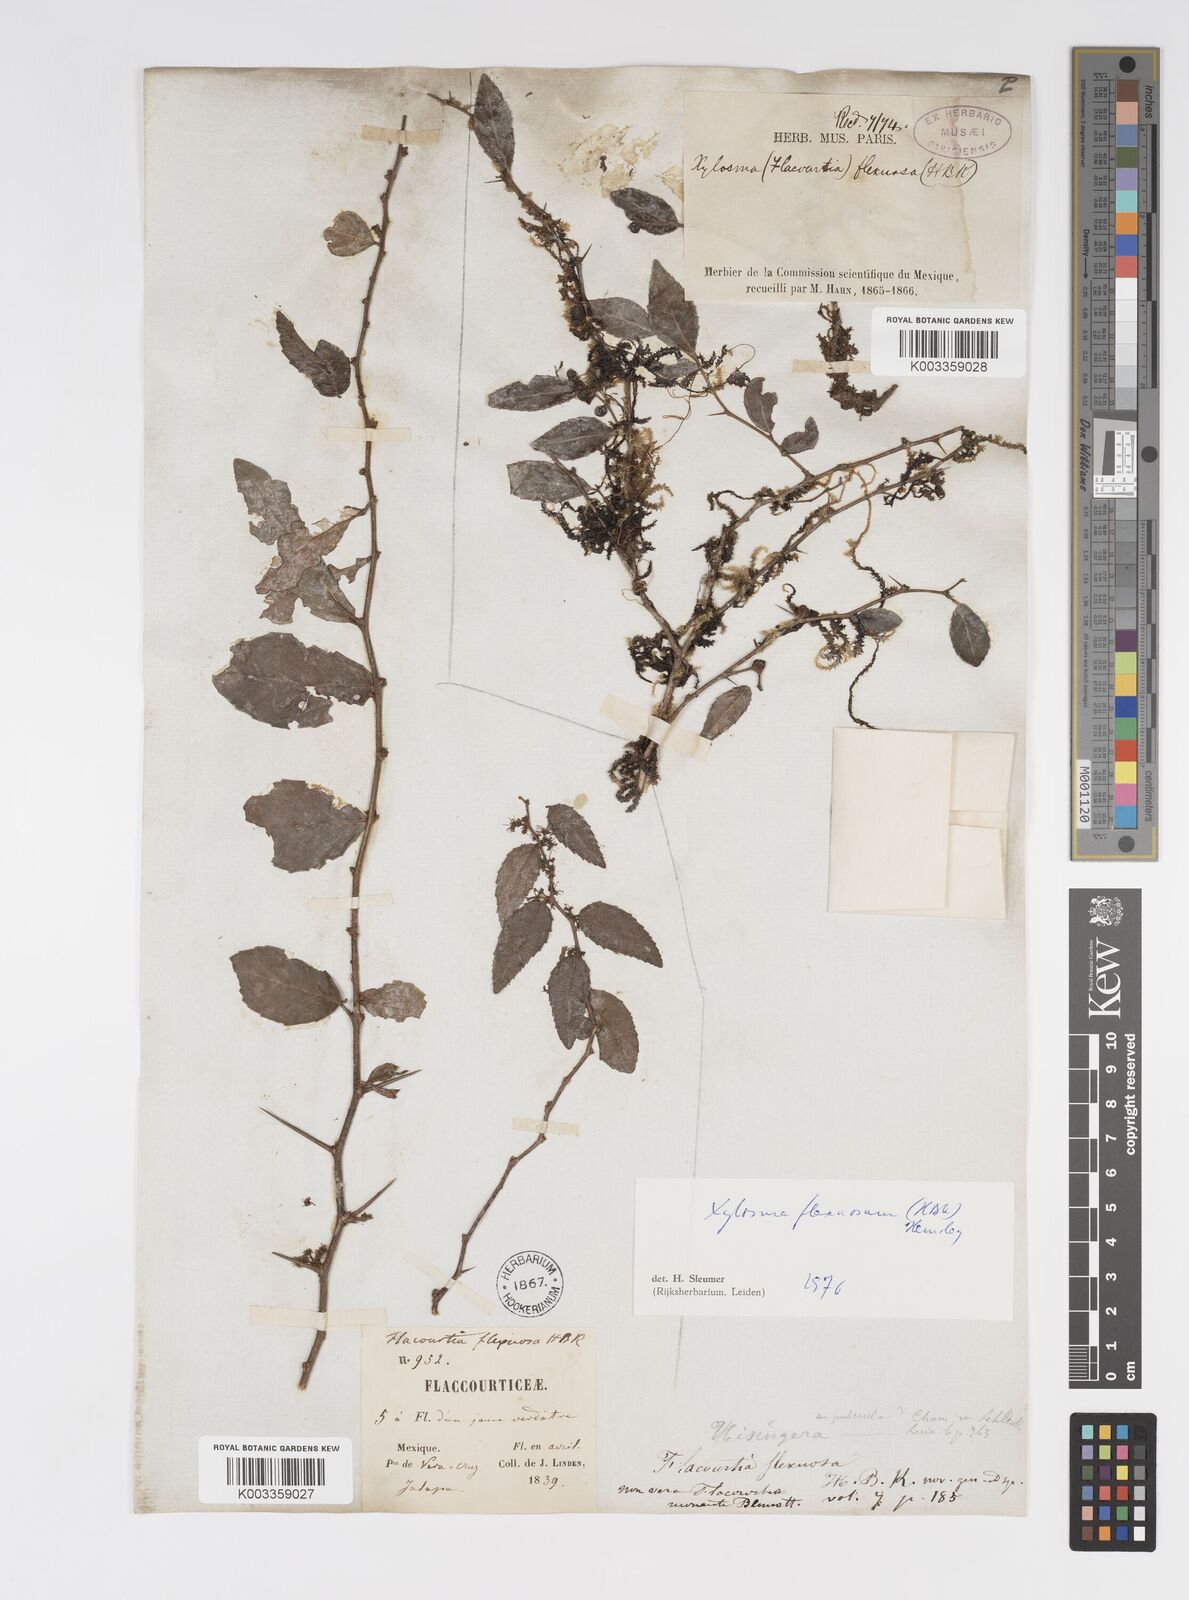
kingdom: Plantae
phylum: Tracheophyta
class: Magnoliopsida
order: Malpighiales
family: Salicaceae
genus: Xylosma
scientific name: Xylosma flexuosa
